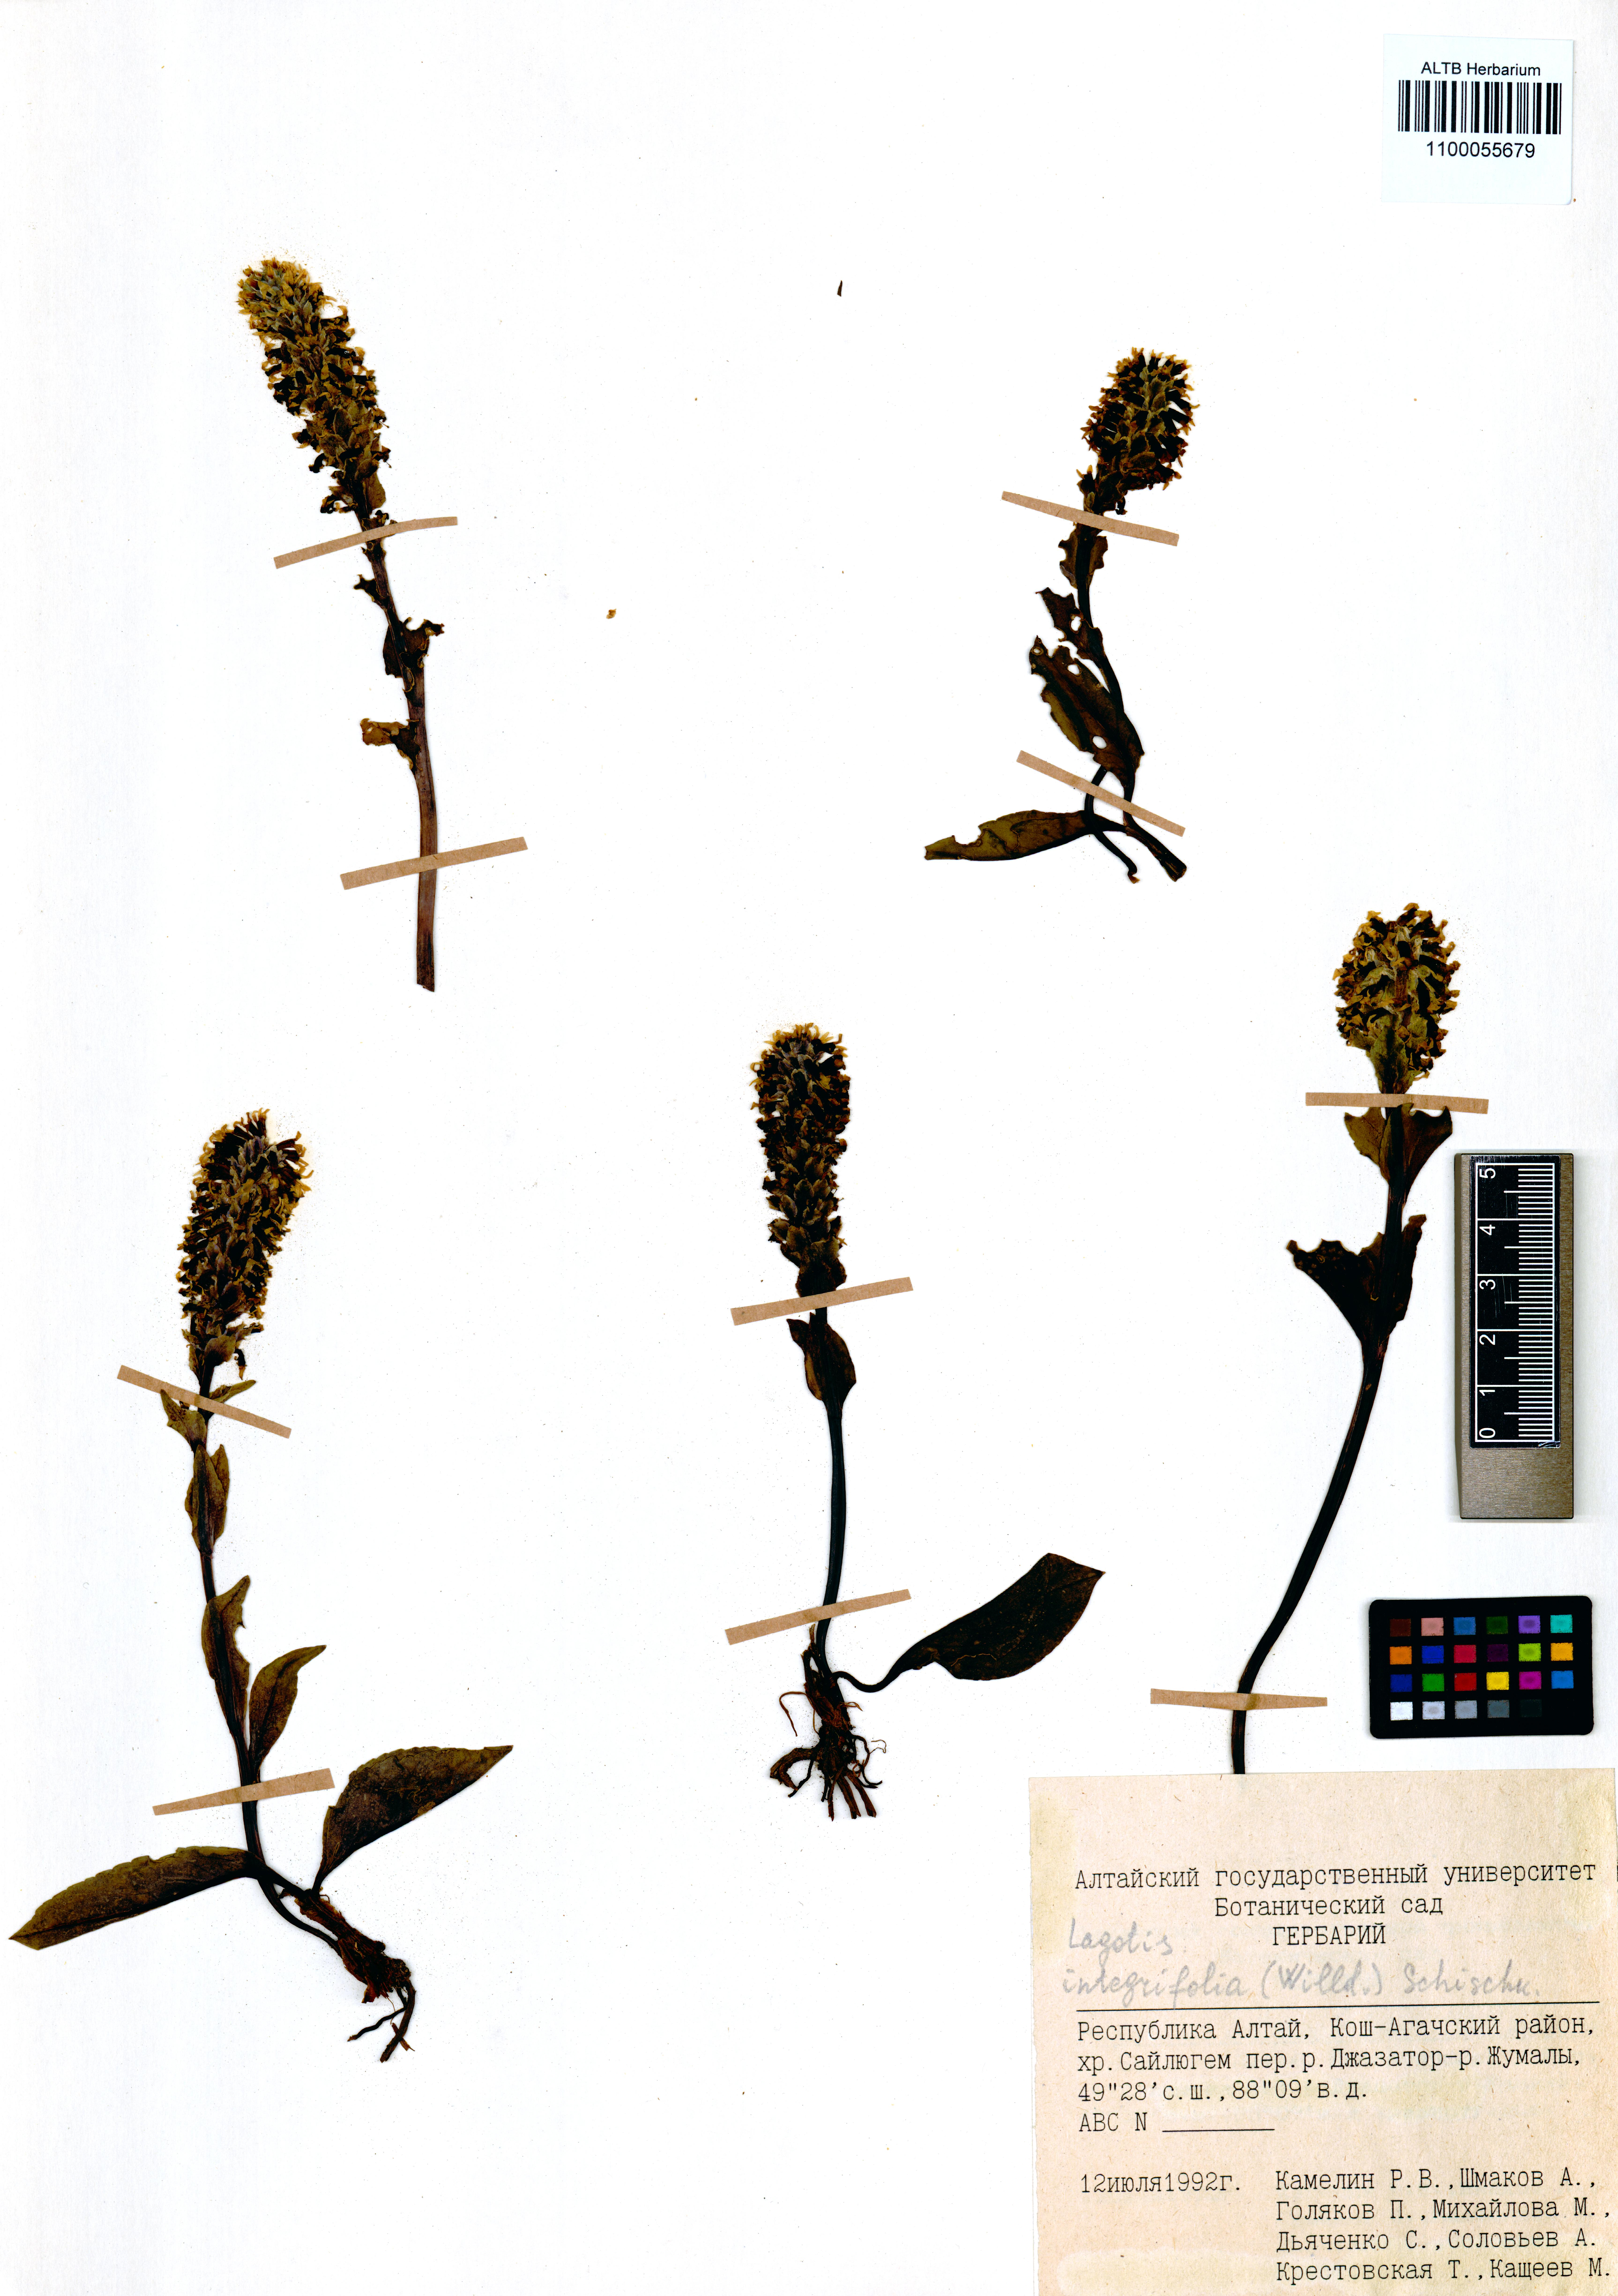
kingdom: Plantae
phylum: Tracheophyta
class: Magnoliopsida
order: Lamiales
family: Plantaginaceae
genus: Lagotis
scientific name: Lagotis integrifolia
